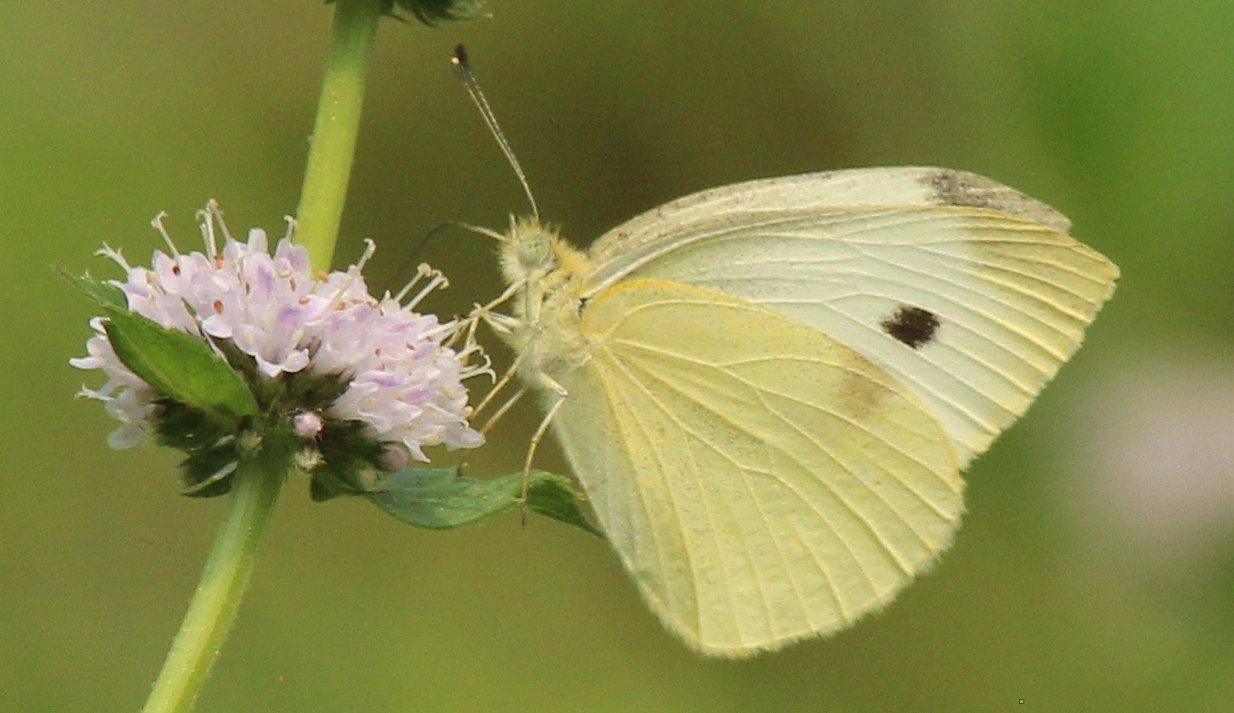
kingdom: Animalia
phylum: Arthropoda
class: Insecta
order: Lepidoptera
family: Pieridae
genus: Pieris
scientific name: Pieris rapae
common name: Cabbage White
